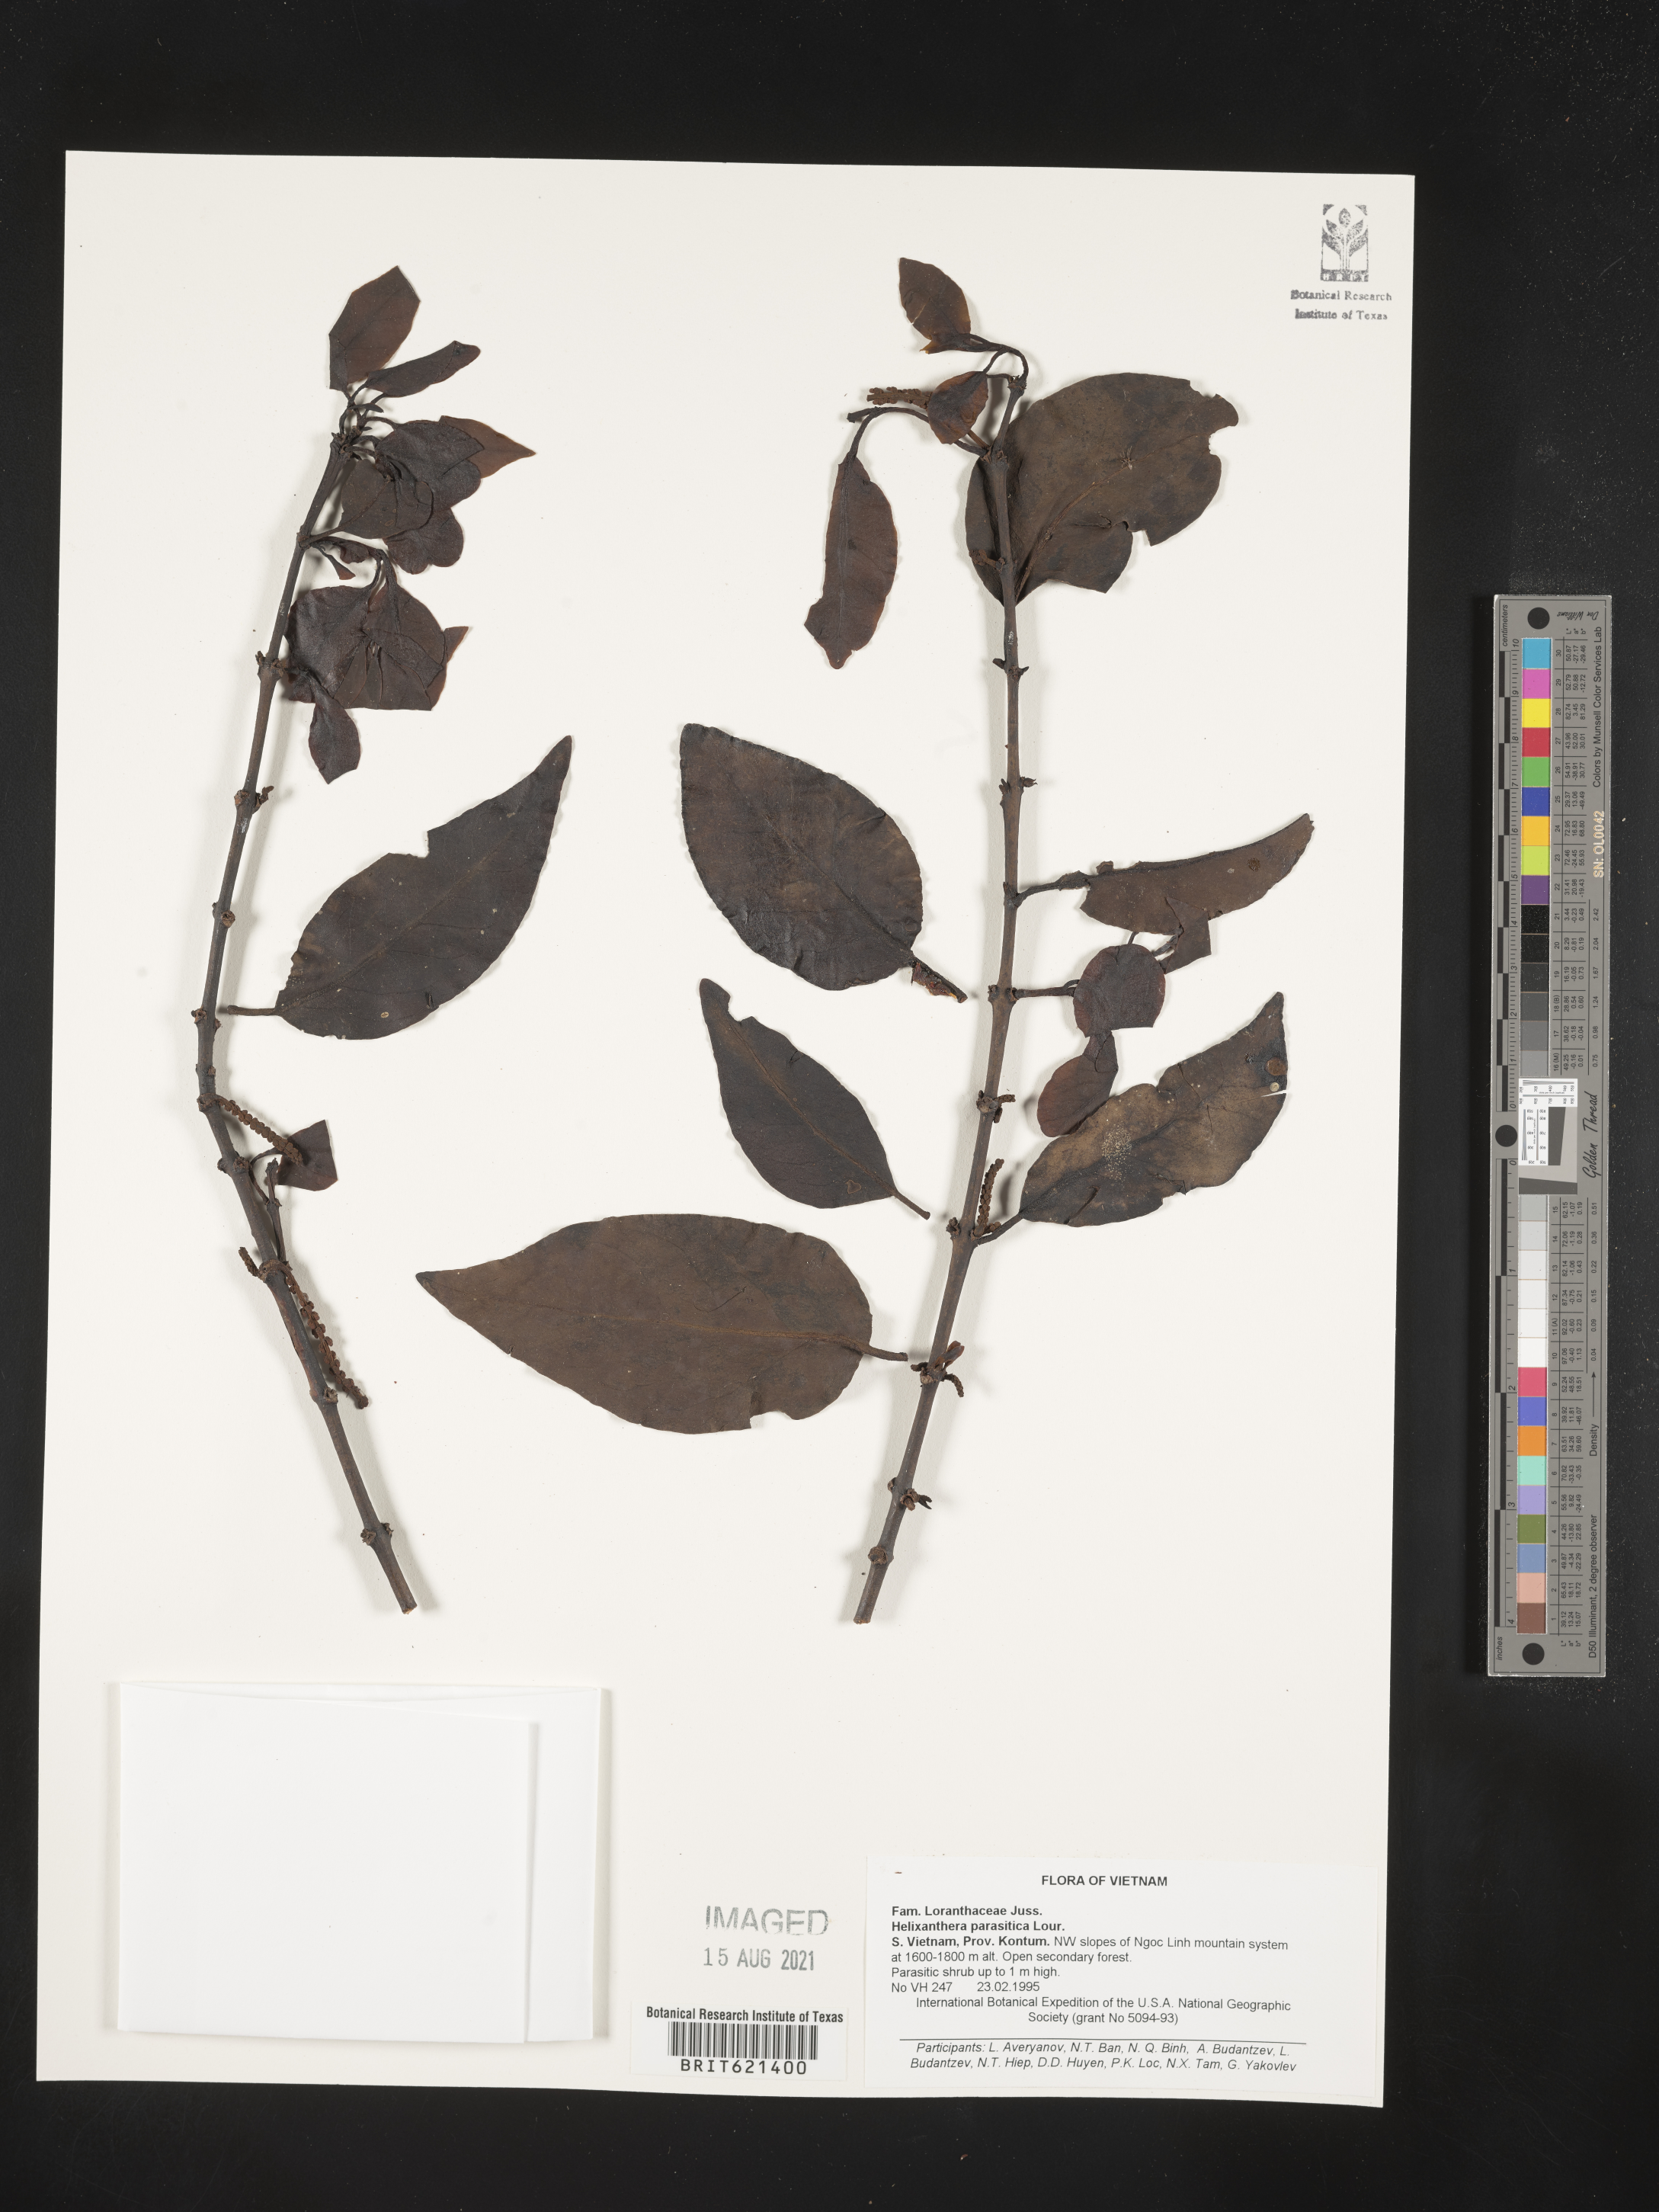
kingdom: Plantae
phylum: Tracheophyta
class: Magnoliopsida
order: Santalales
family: Loranthaceae
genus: Helixanthera
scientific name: Helixanthera parasitica
